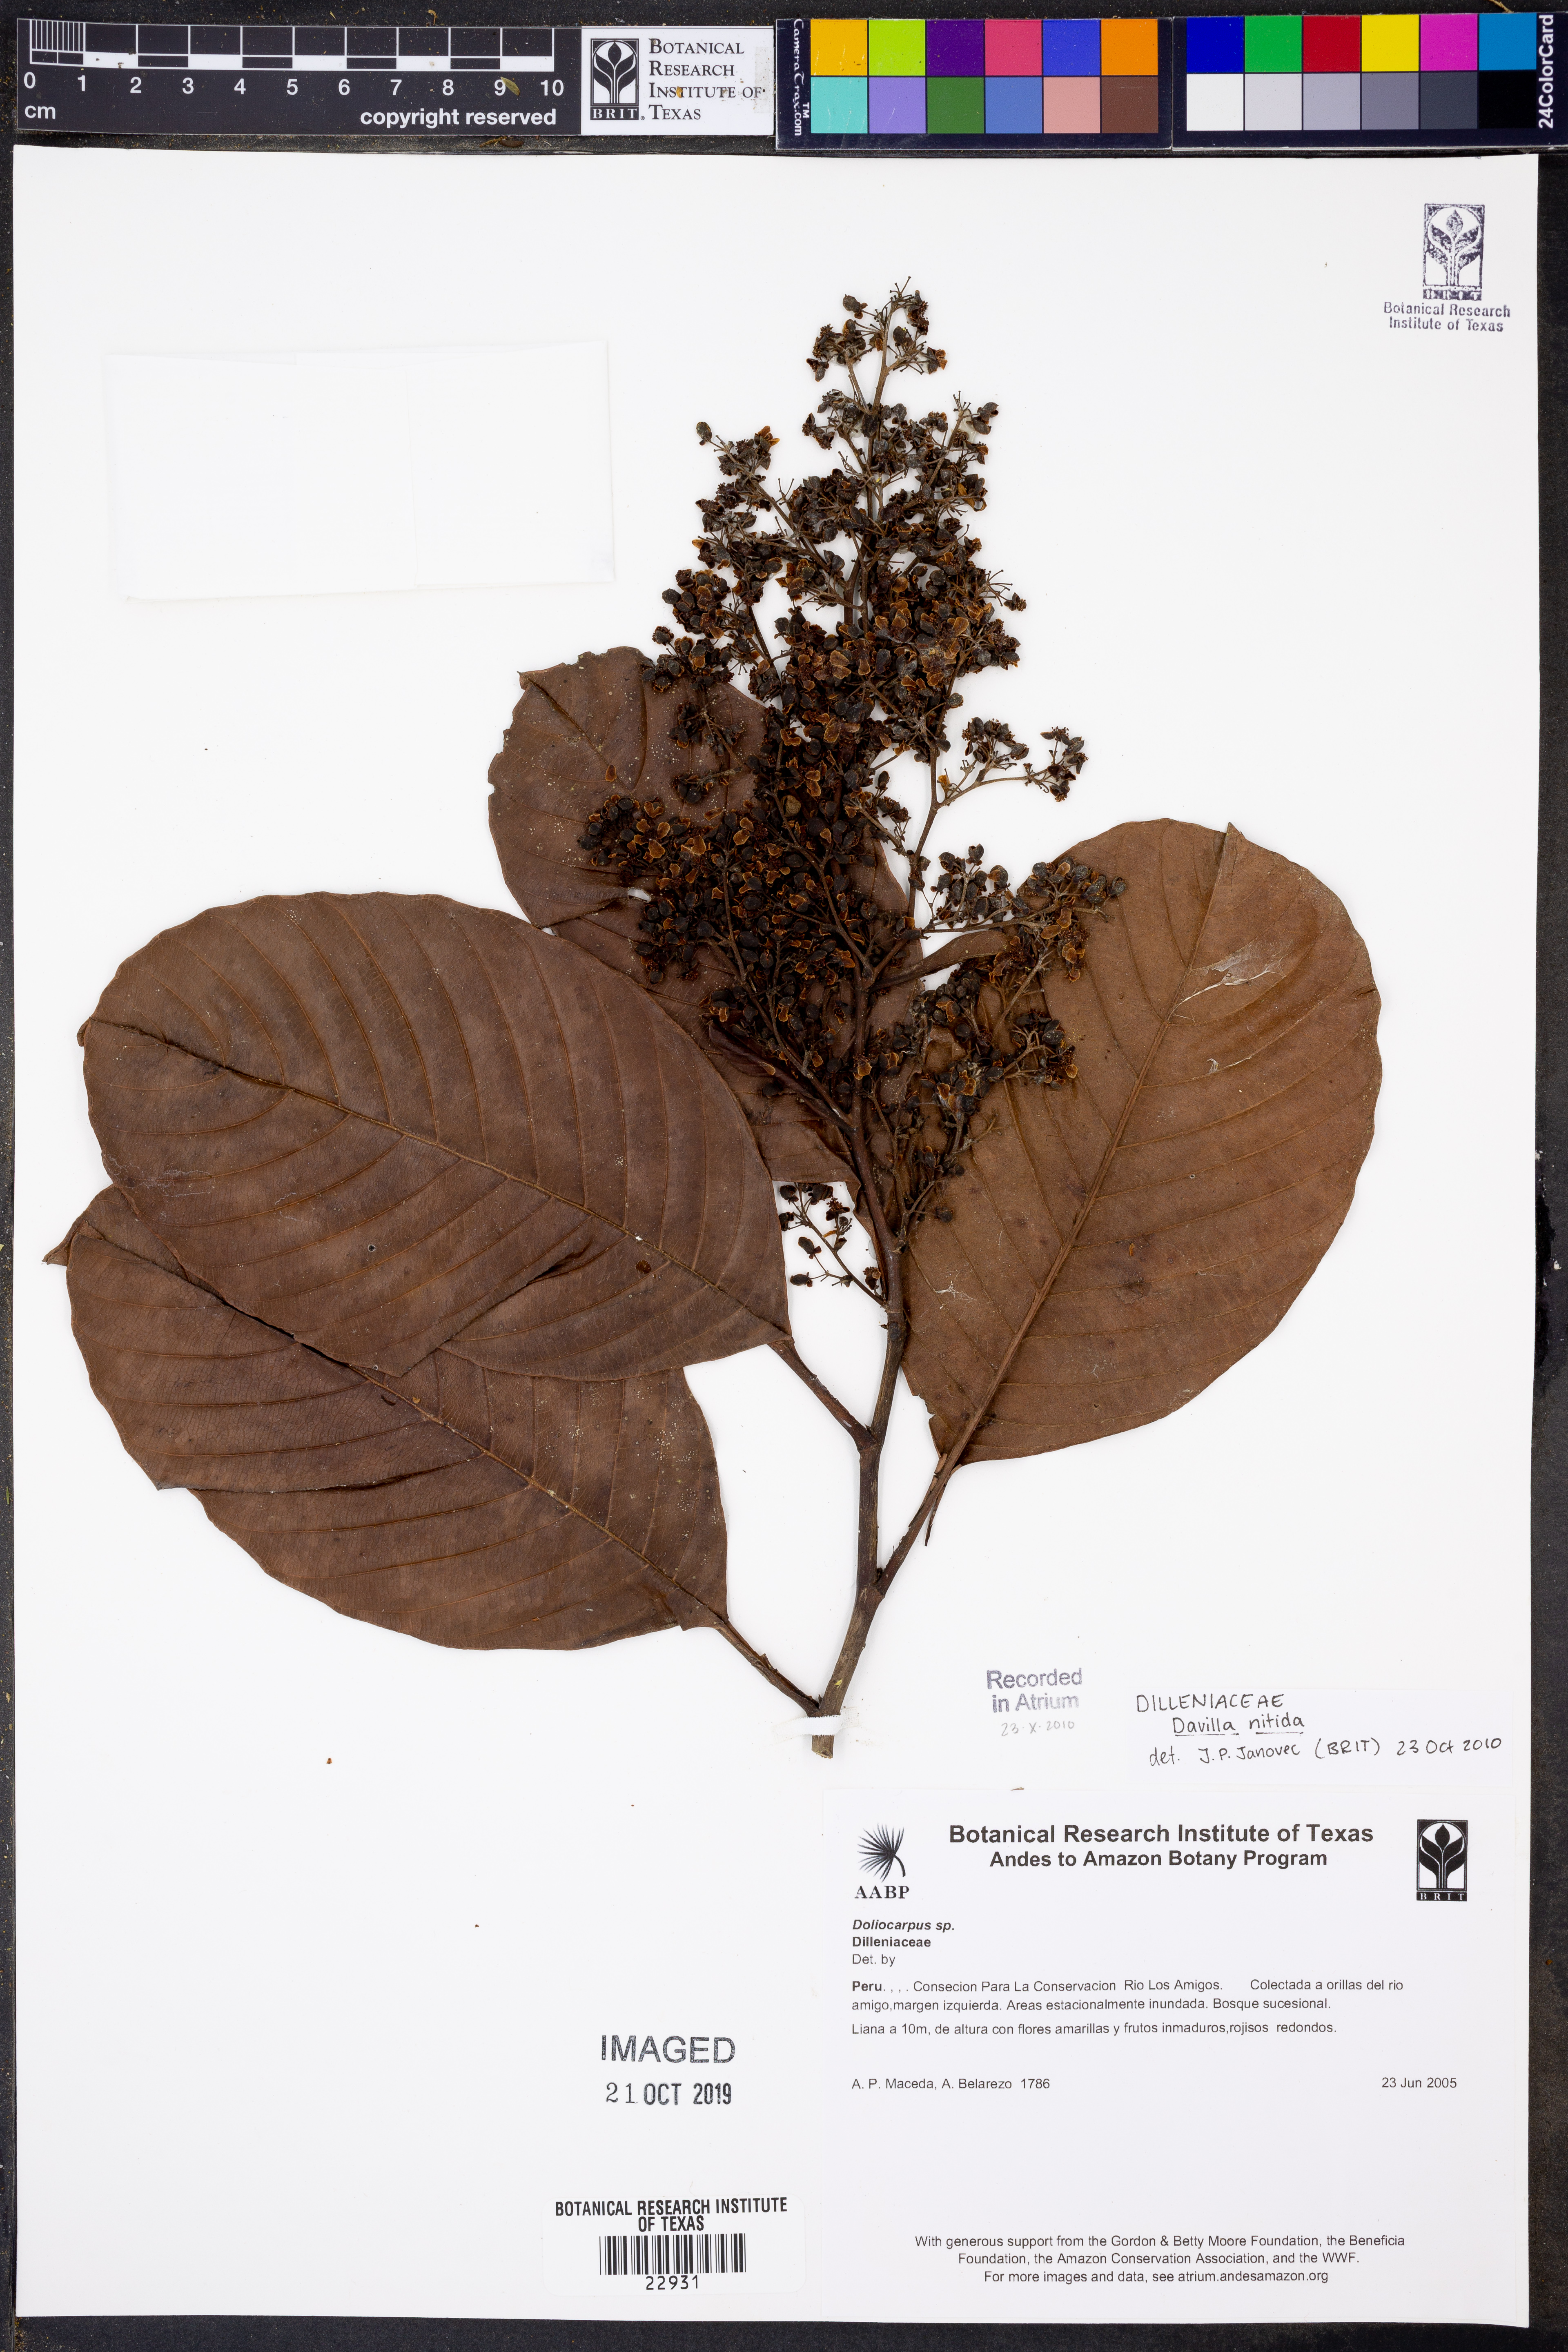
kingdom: Plantae
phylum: Tracheophyta
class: Polypodiopsida
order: Polypodiales
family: Davalliaceae
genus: Davallia
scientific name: Davallia
